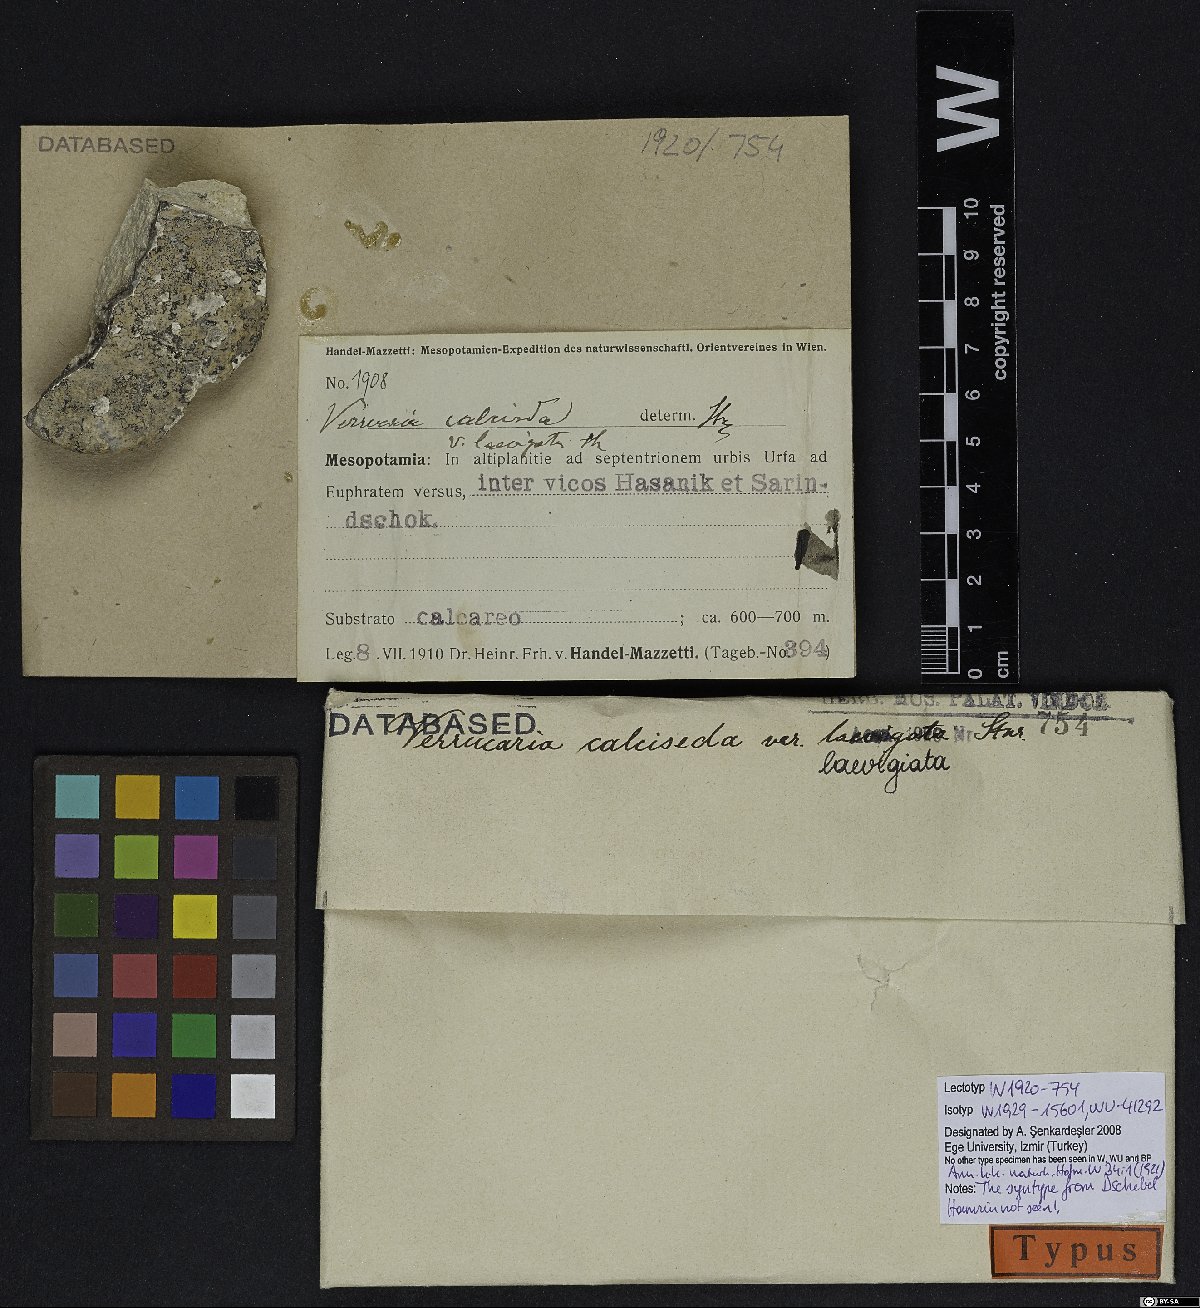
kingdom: Fungi
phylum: Ascomycota
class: Eurotiomycetes
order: Verrucariales
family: Verrucariaceae
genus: Bagliettoa
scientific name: Bagliettoa calciseda
